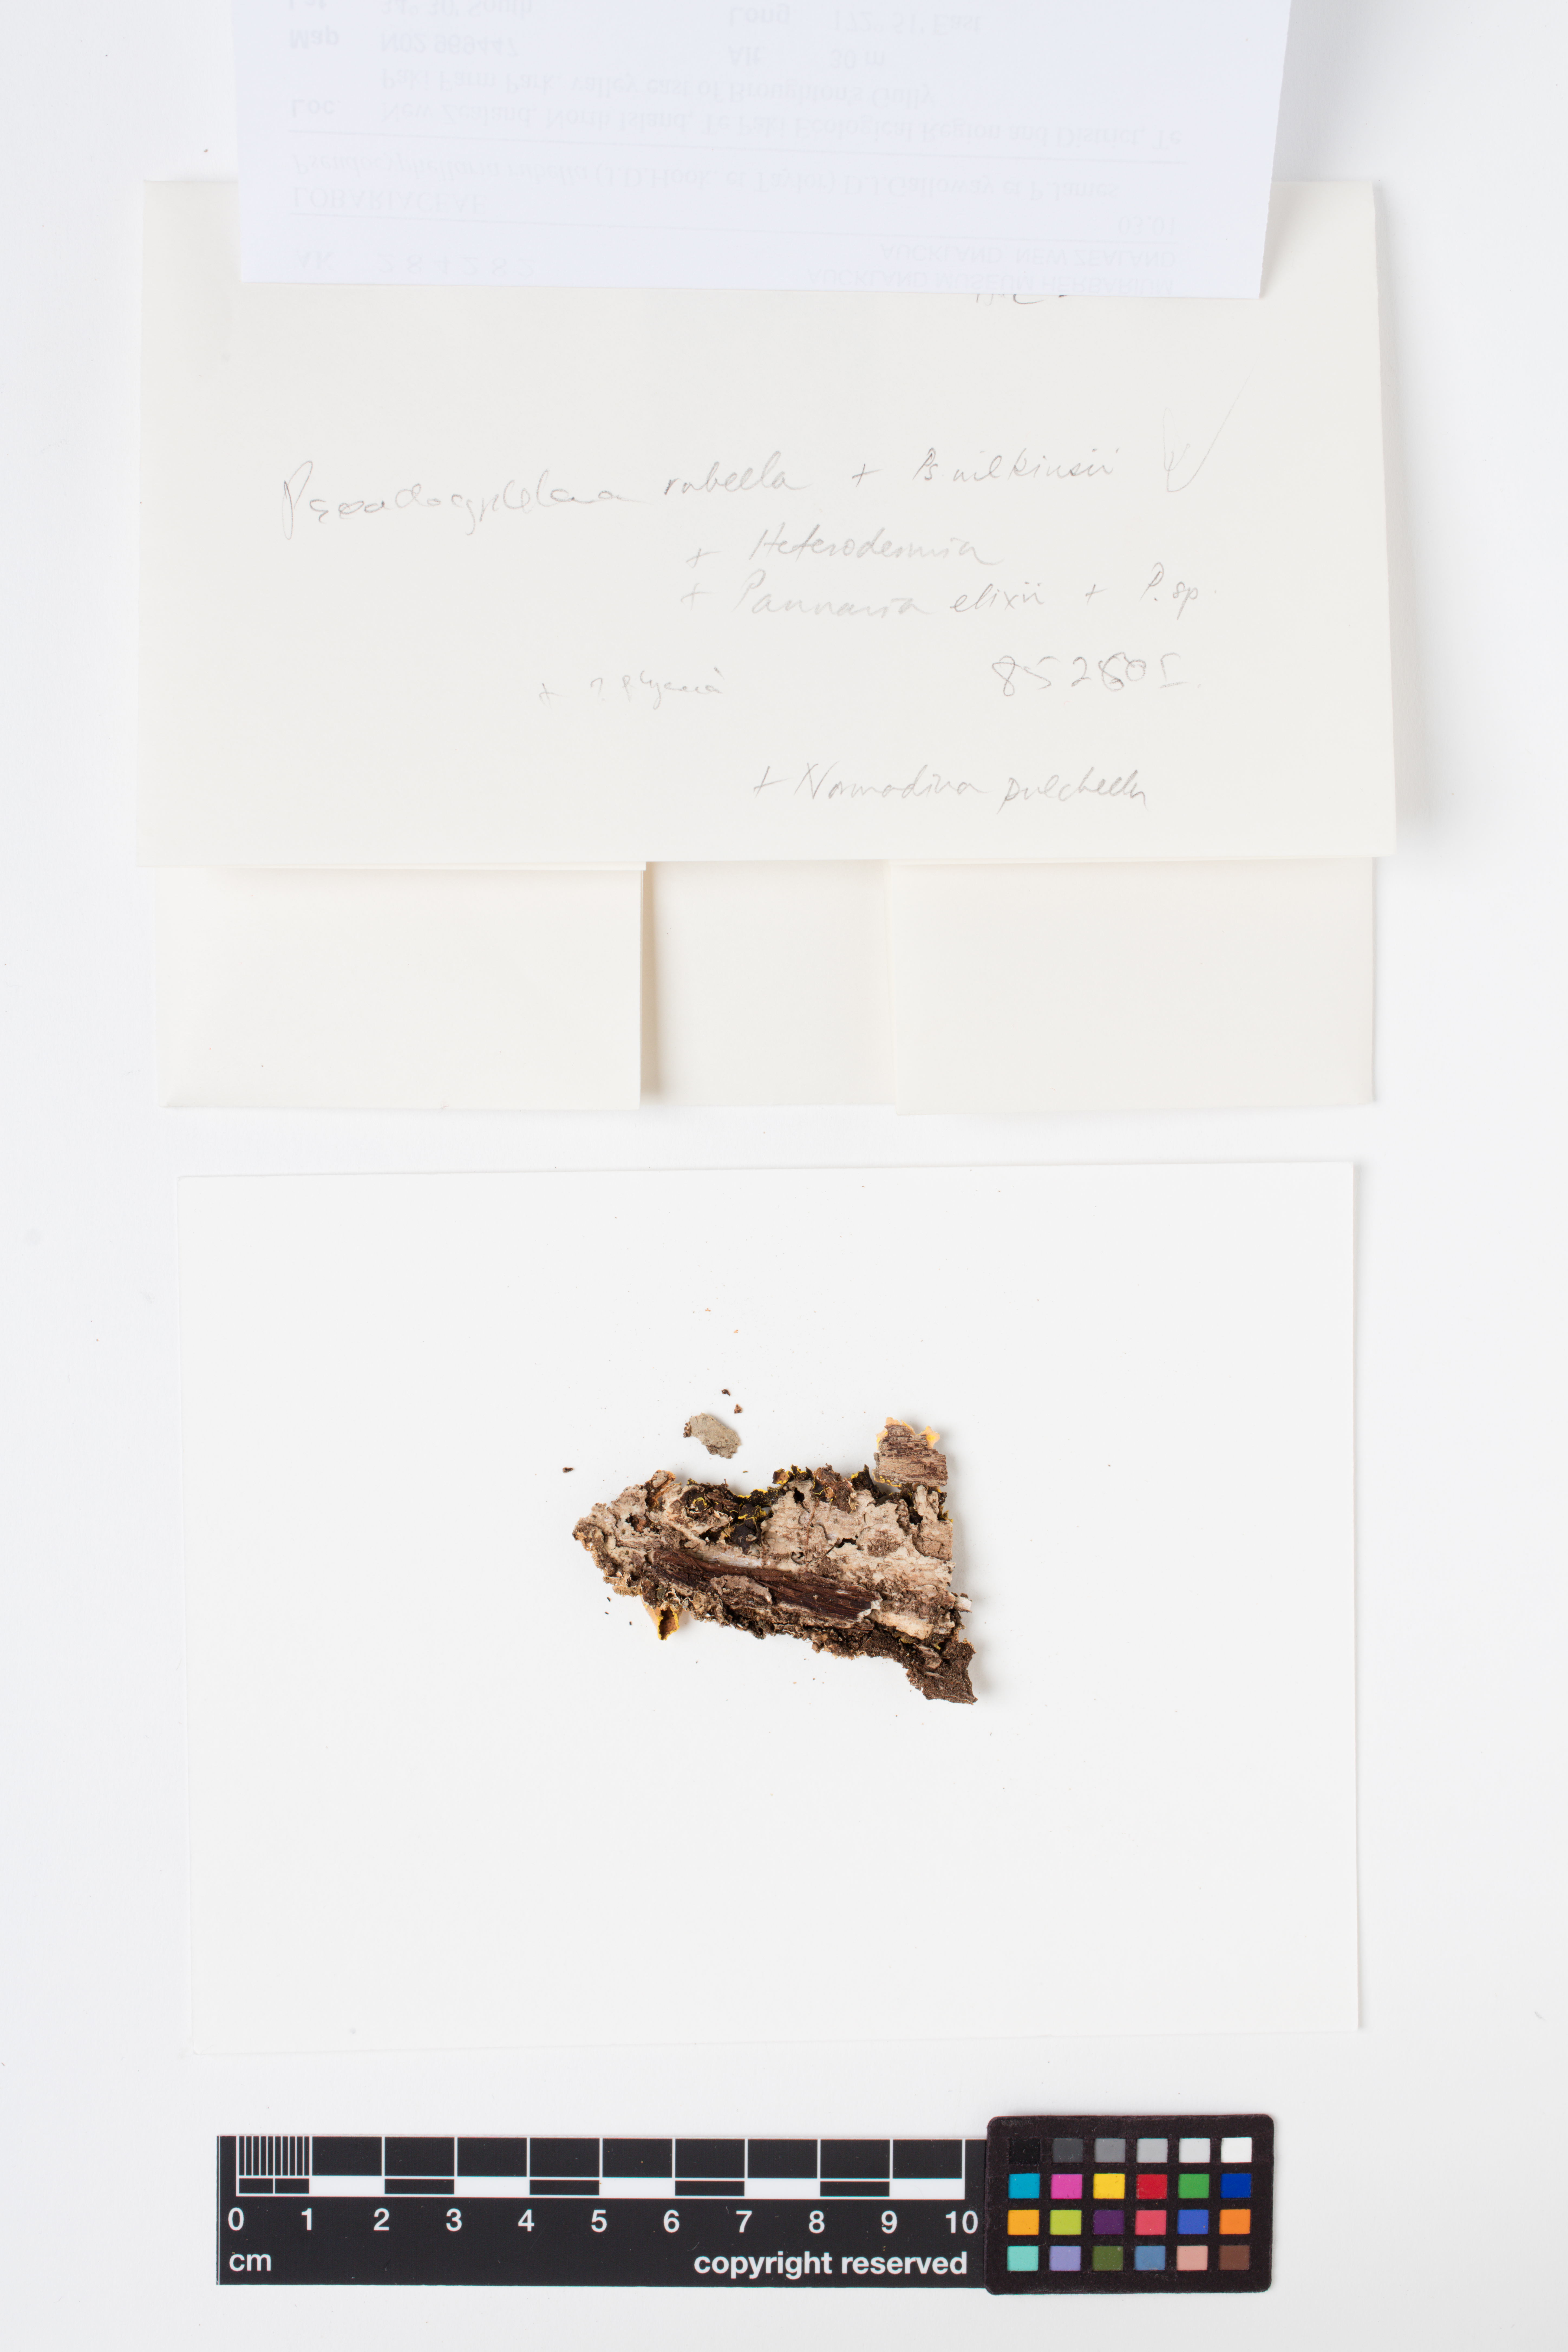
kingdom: Fungi
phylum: Ascomycota
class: Lecanoromycetes
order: Peltigerales
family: Lobariaceae
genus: Pseudocyphellaria
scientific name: Pseudocyphellaria rubella
